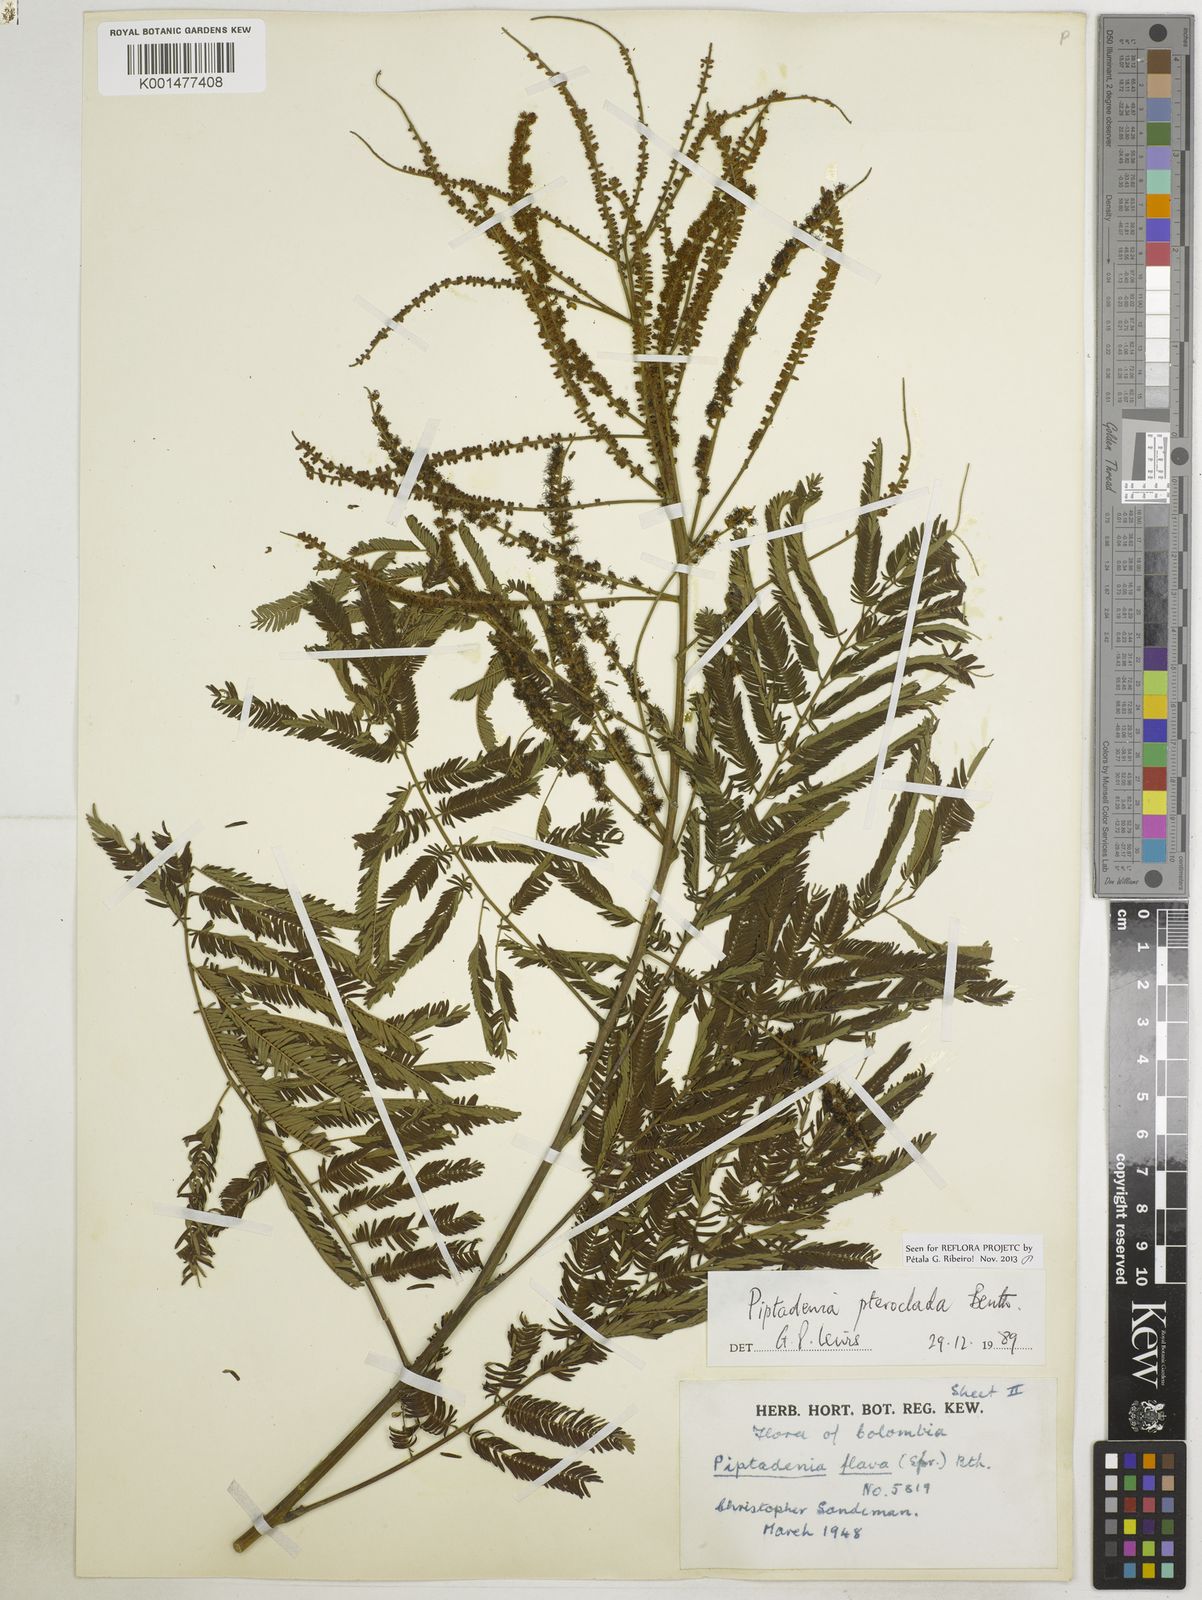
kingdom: Plantae
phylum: Tracheophyta
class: Magnoliopsida
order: Fabales
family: Fabaceae
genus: Piptadenia
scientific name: Piptadenia pteroclada
